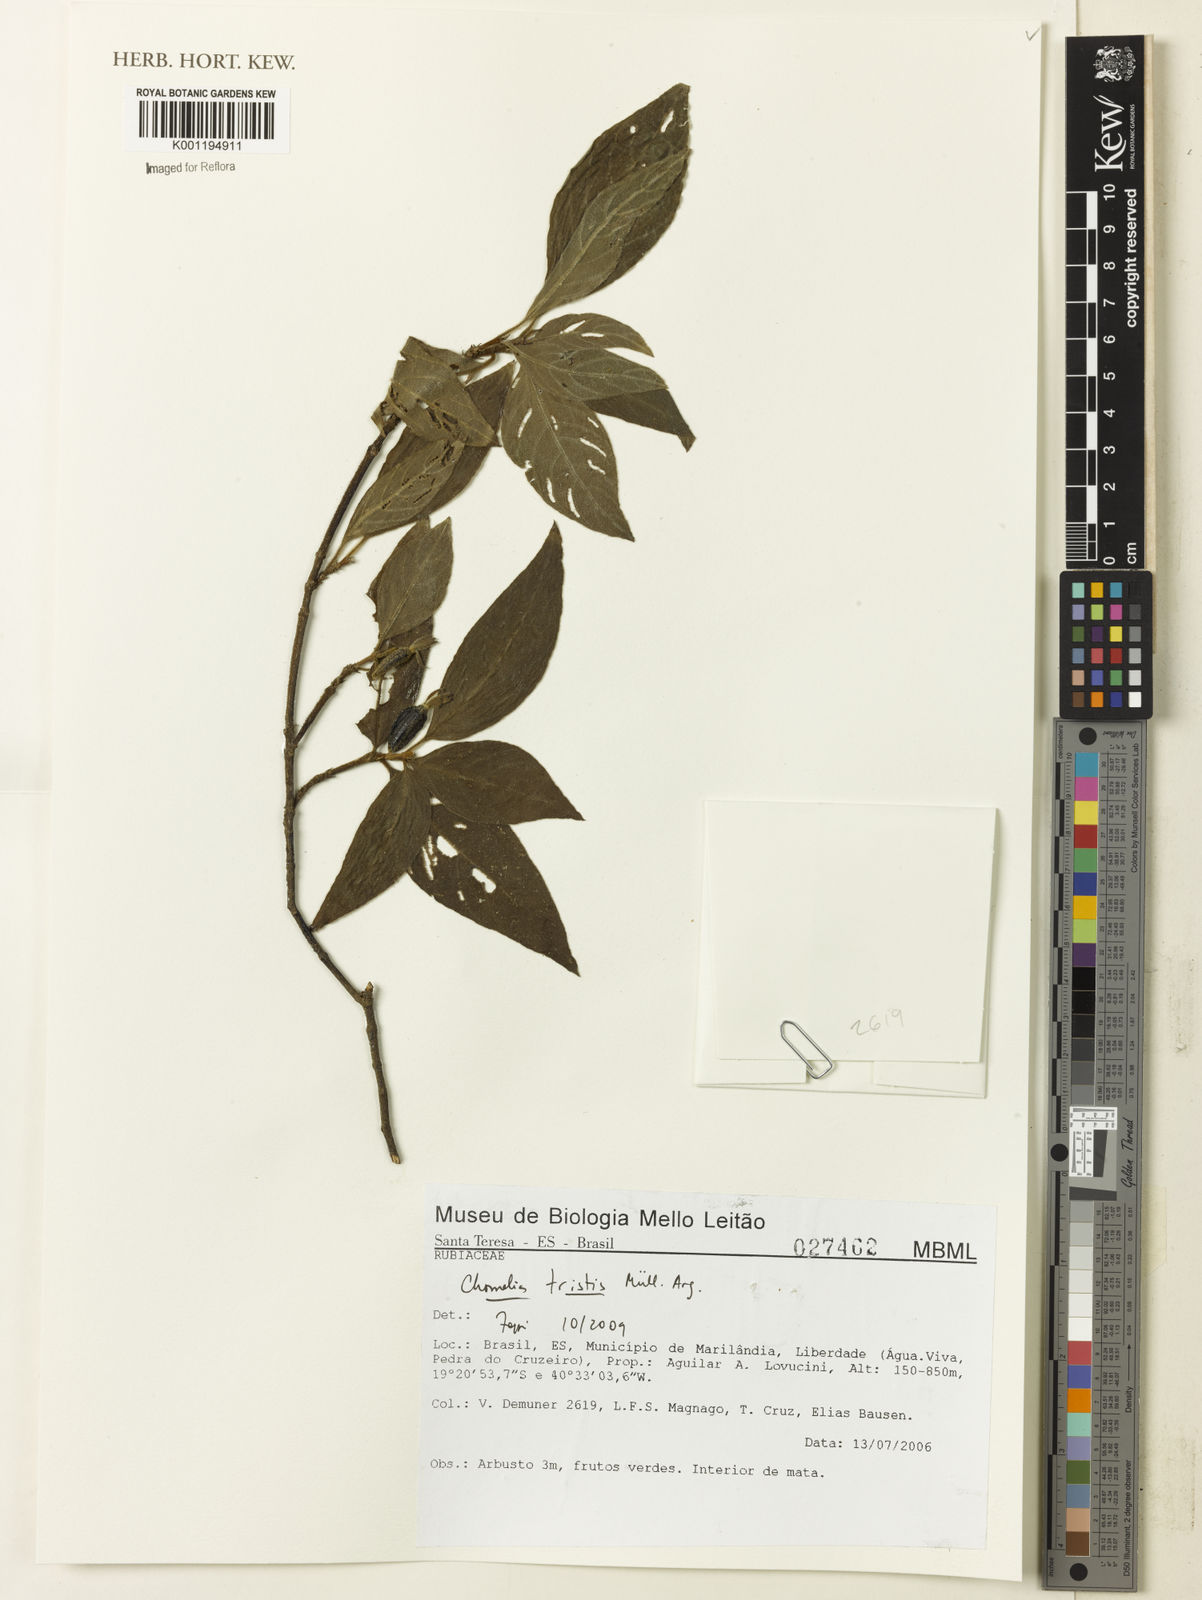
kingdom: Plantae
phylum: Tracheophyta
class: Magnoliopsida
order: Gentianales
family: Rubiaceae
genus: Chomelia
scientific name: Chomelia
